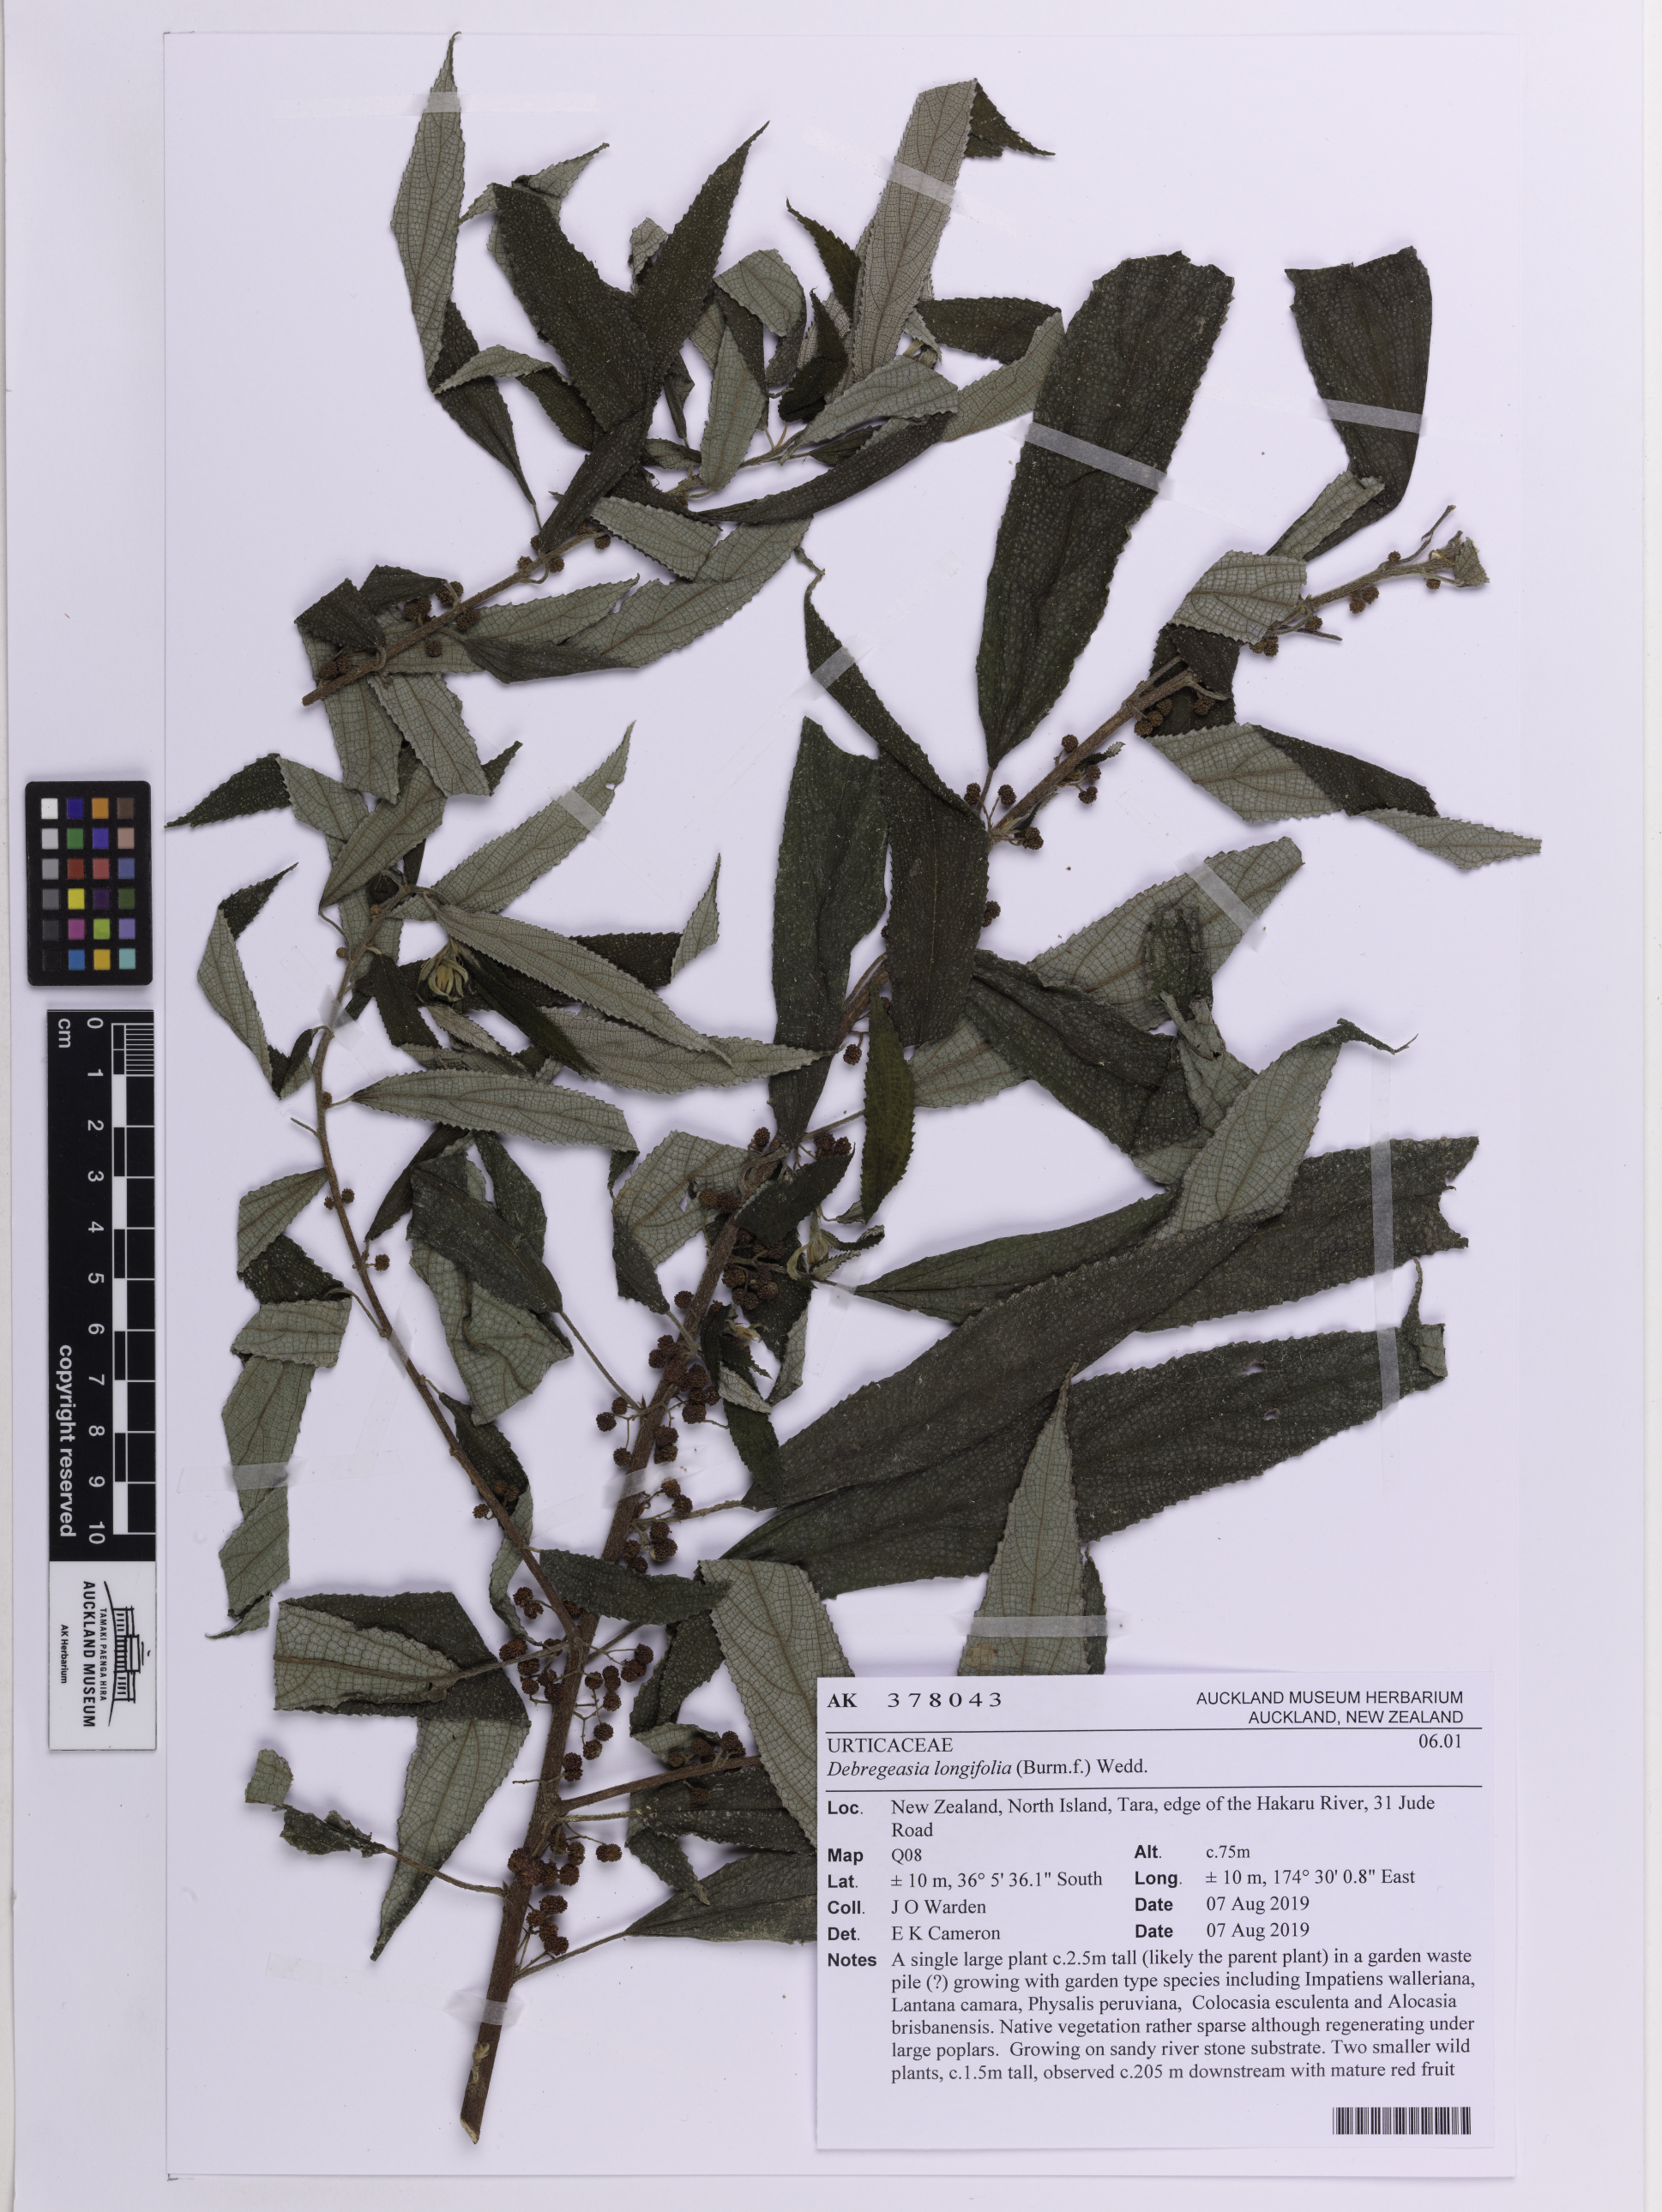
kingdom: Plantae
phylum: Tracheophyta
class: Magnoliopsida
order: Rosales
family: Urticaceae
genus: Debregeasia
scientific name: Debregeasia longifolia
